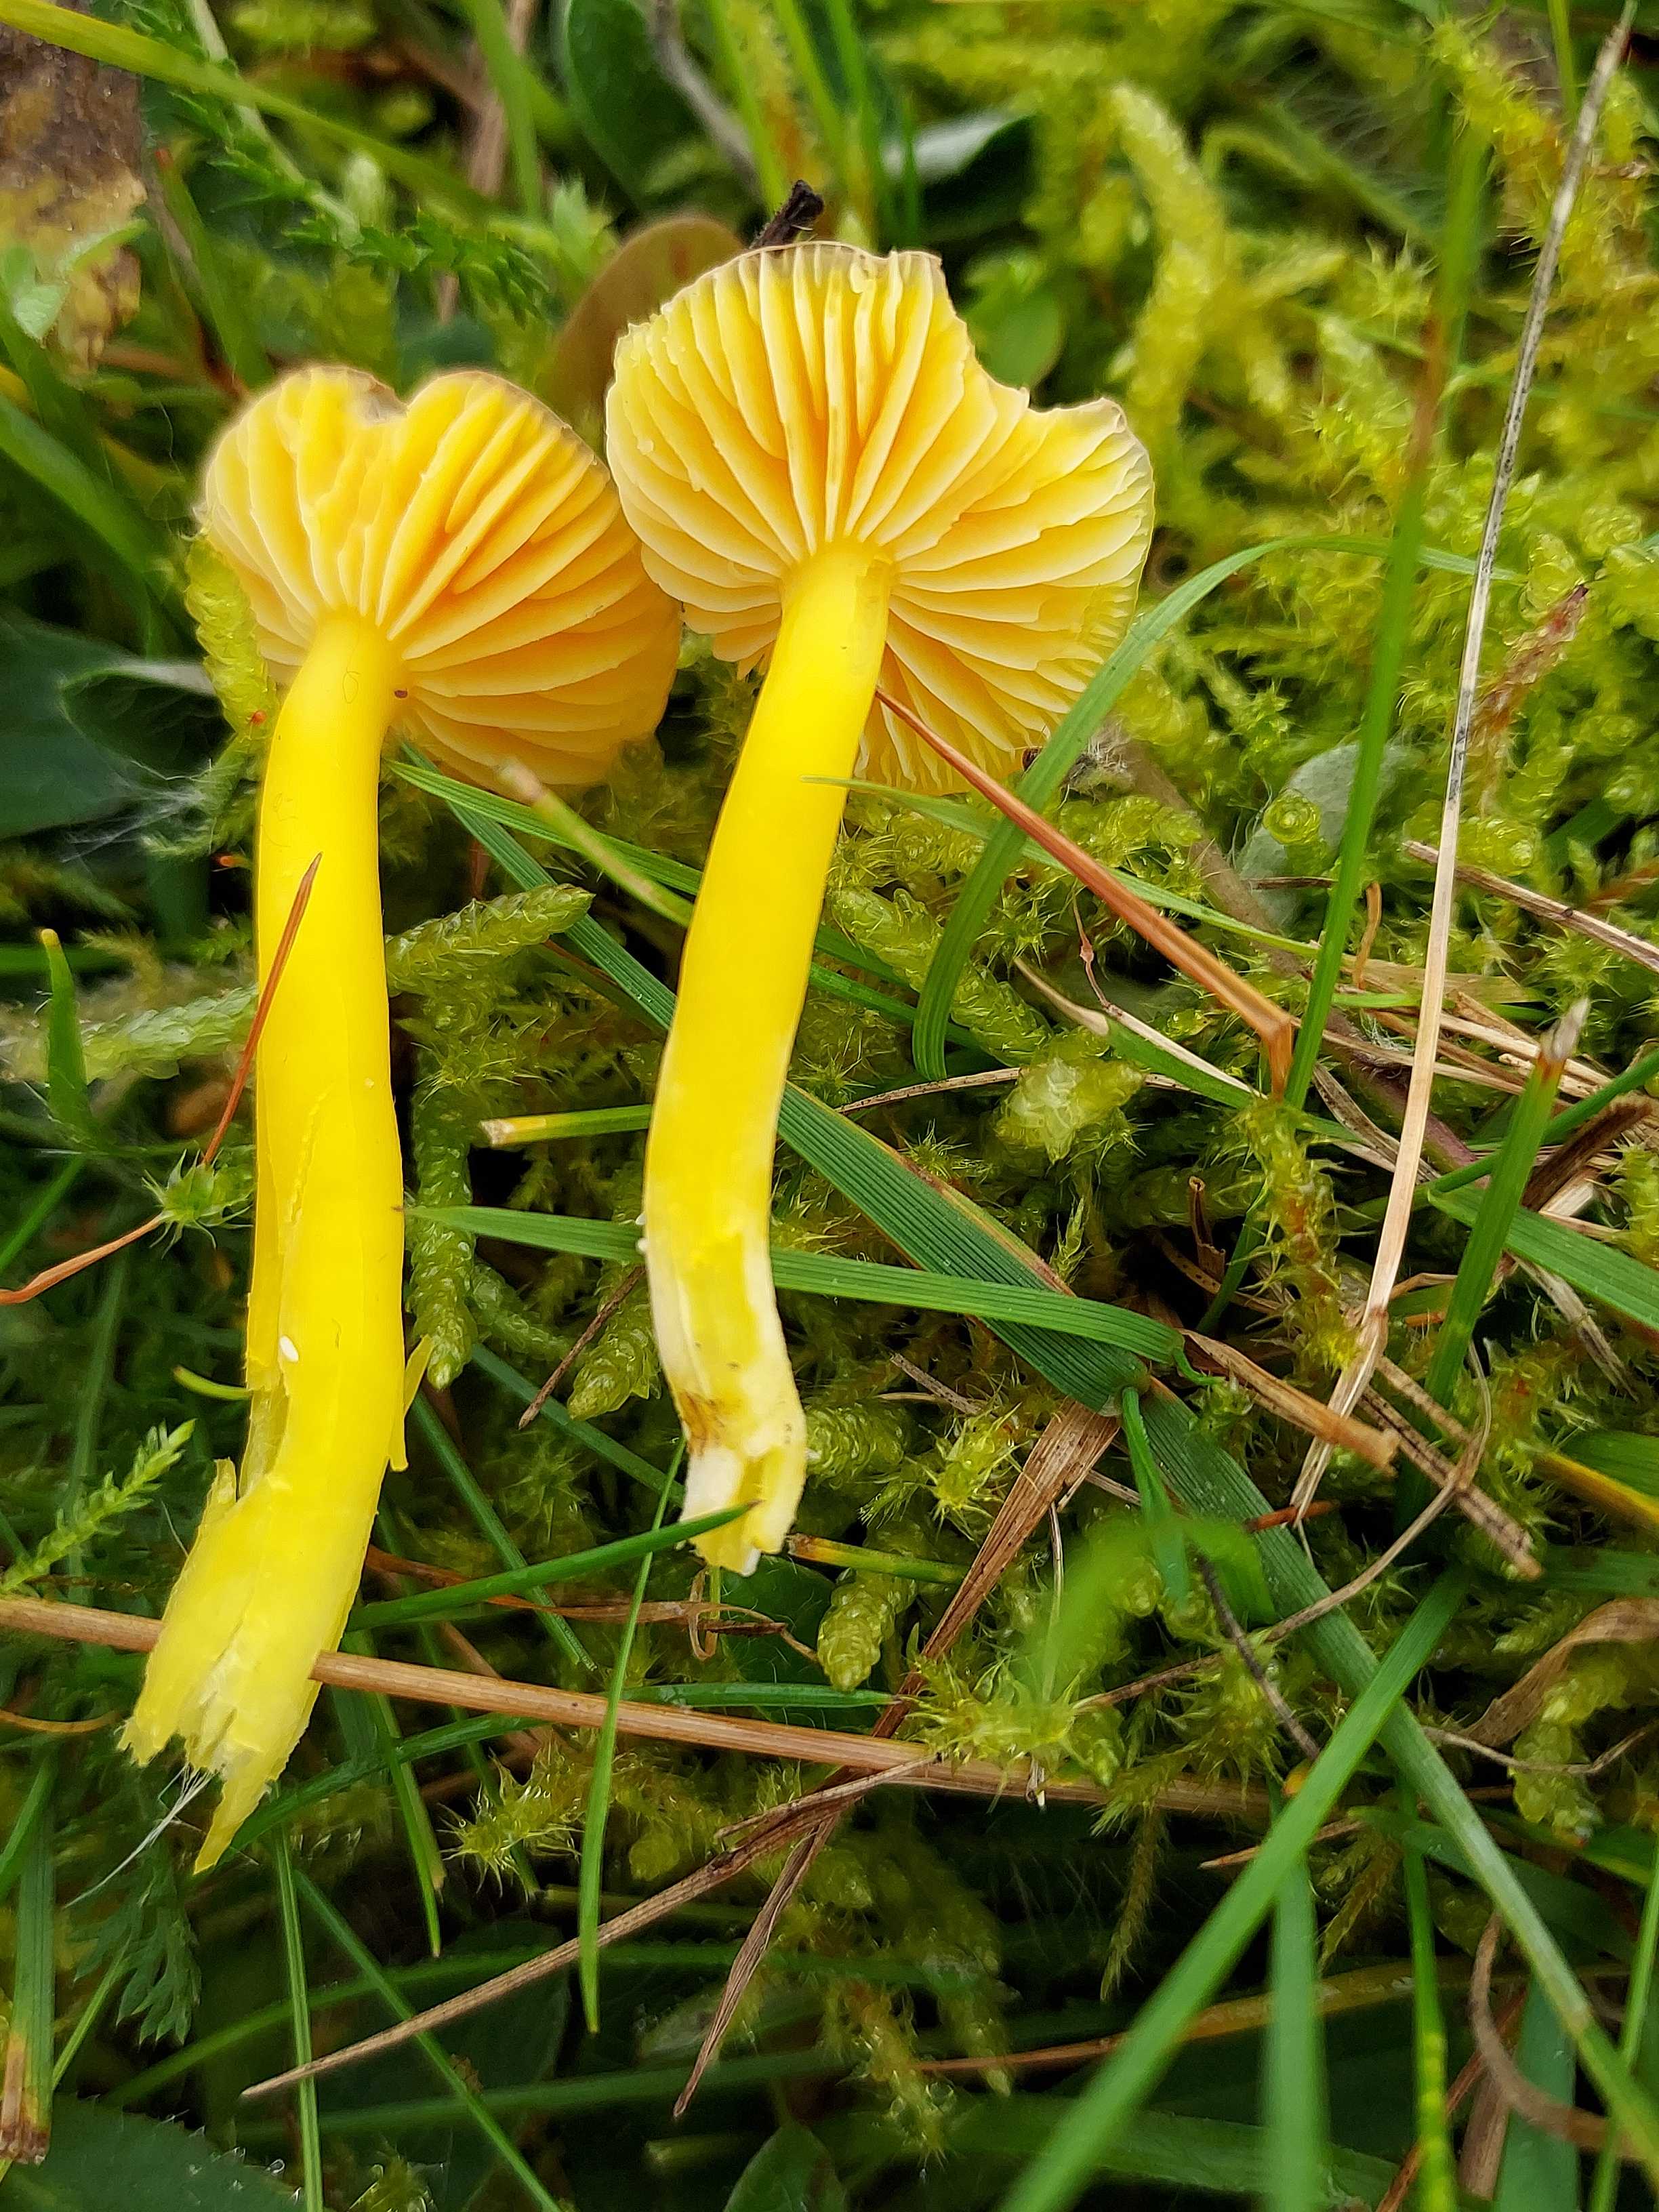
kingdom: Fungi
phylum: Basidiomycota
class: Agaricomycetes
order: Agaricales
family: Hygrophoraceae
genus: Hygrocybe
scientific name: Hygrocybe ceracea
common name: voksgul vokshat
